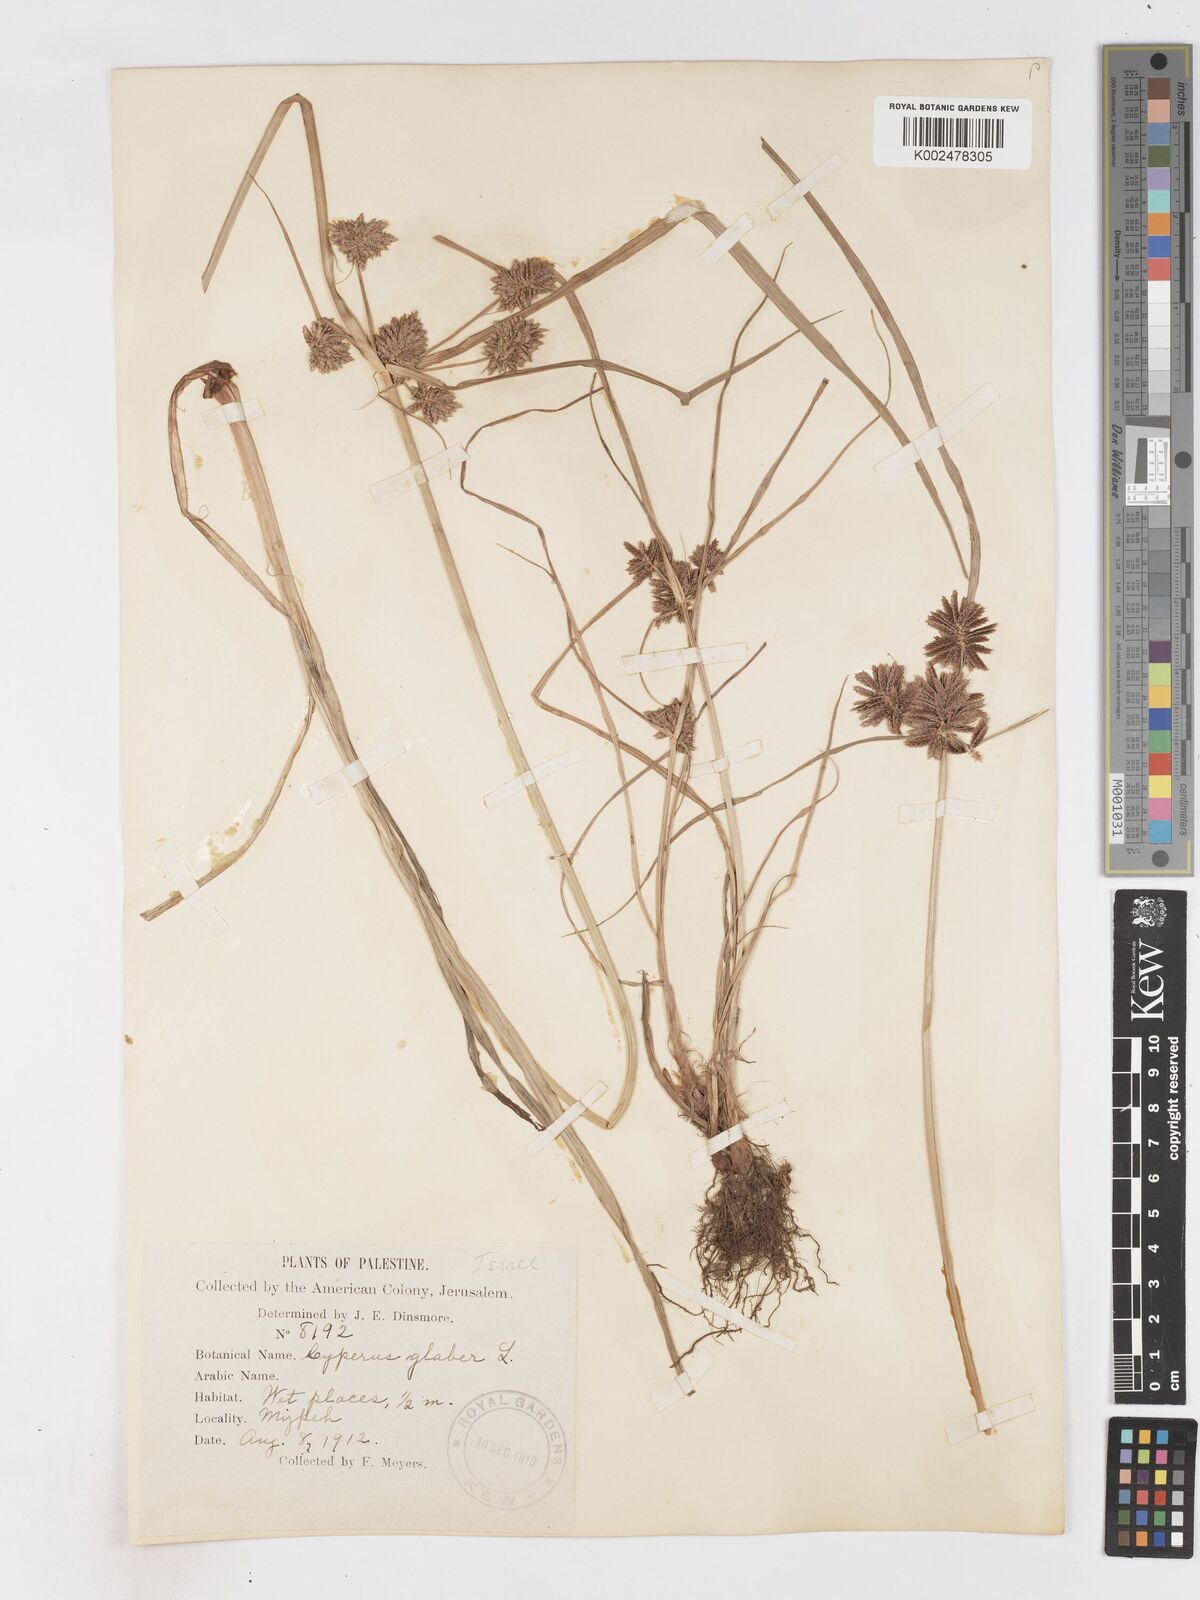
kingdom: Plantae
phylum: Tracheophyta
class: Liliopsida
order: Poales
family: Cyperaceae
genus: Cyperus
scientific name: Cyperus glaber
